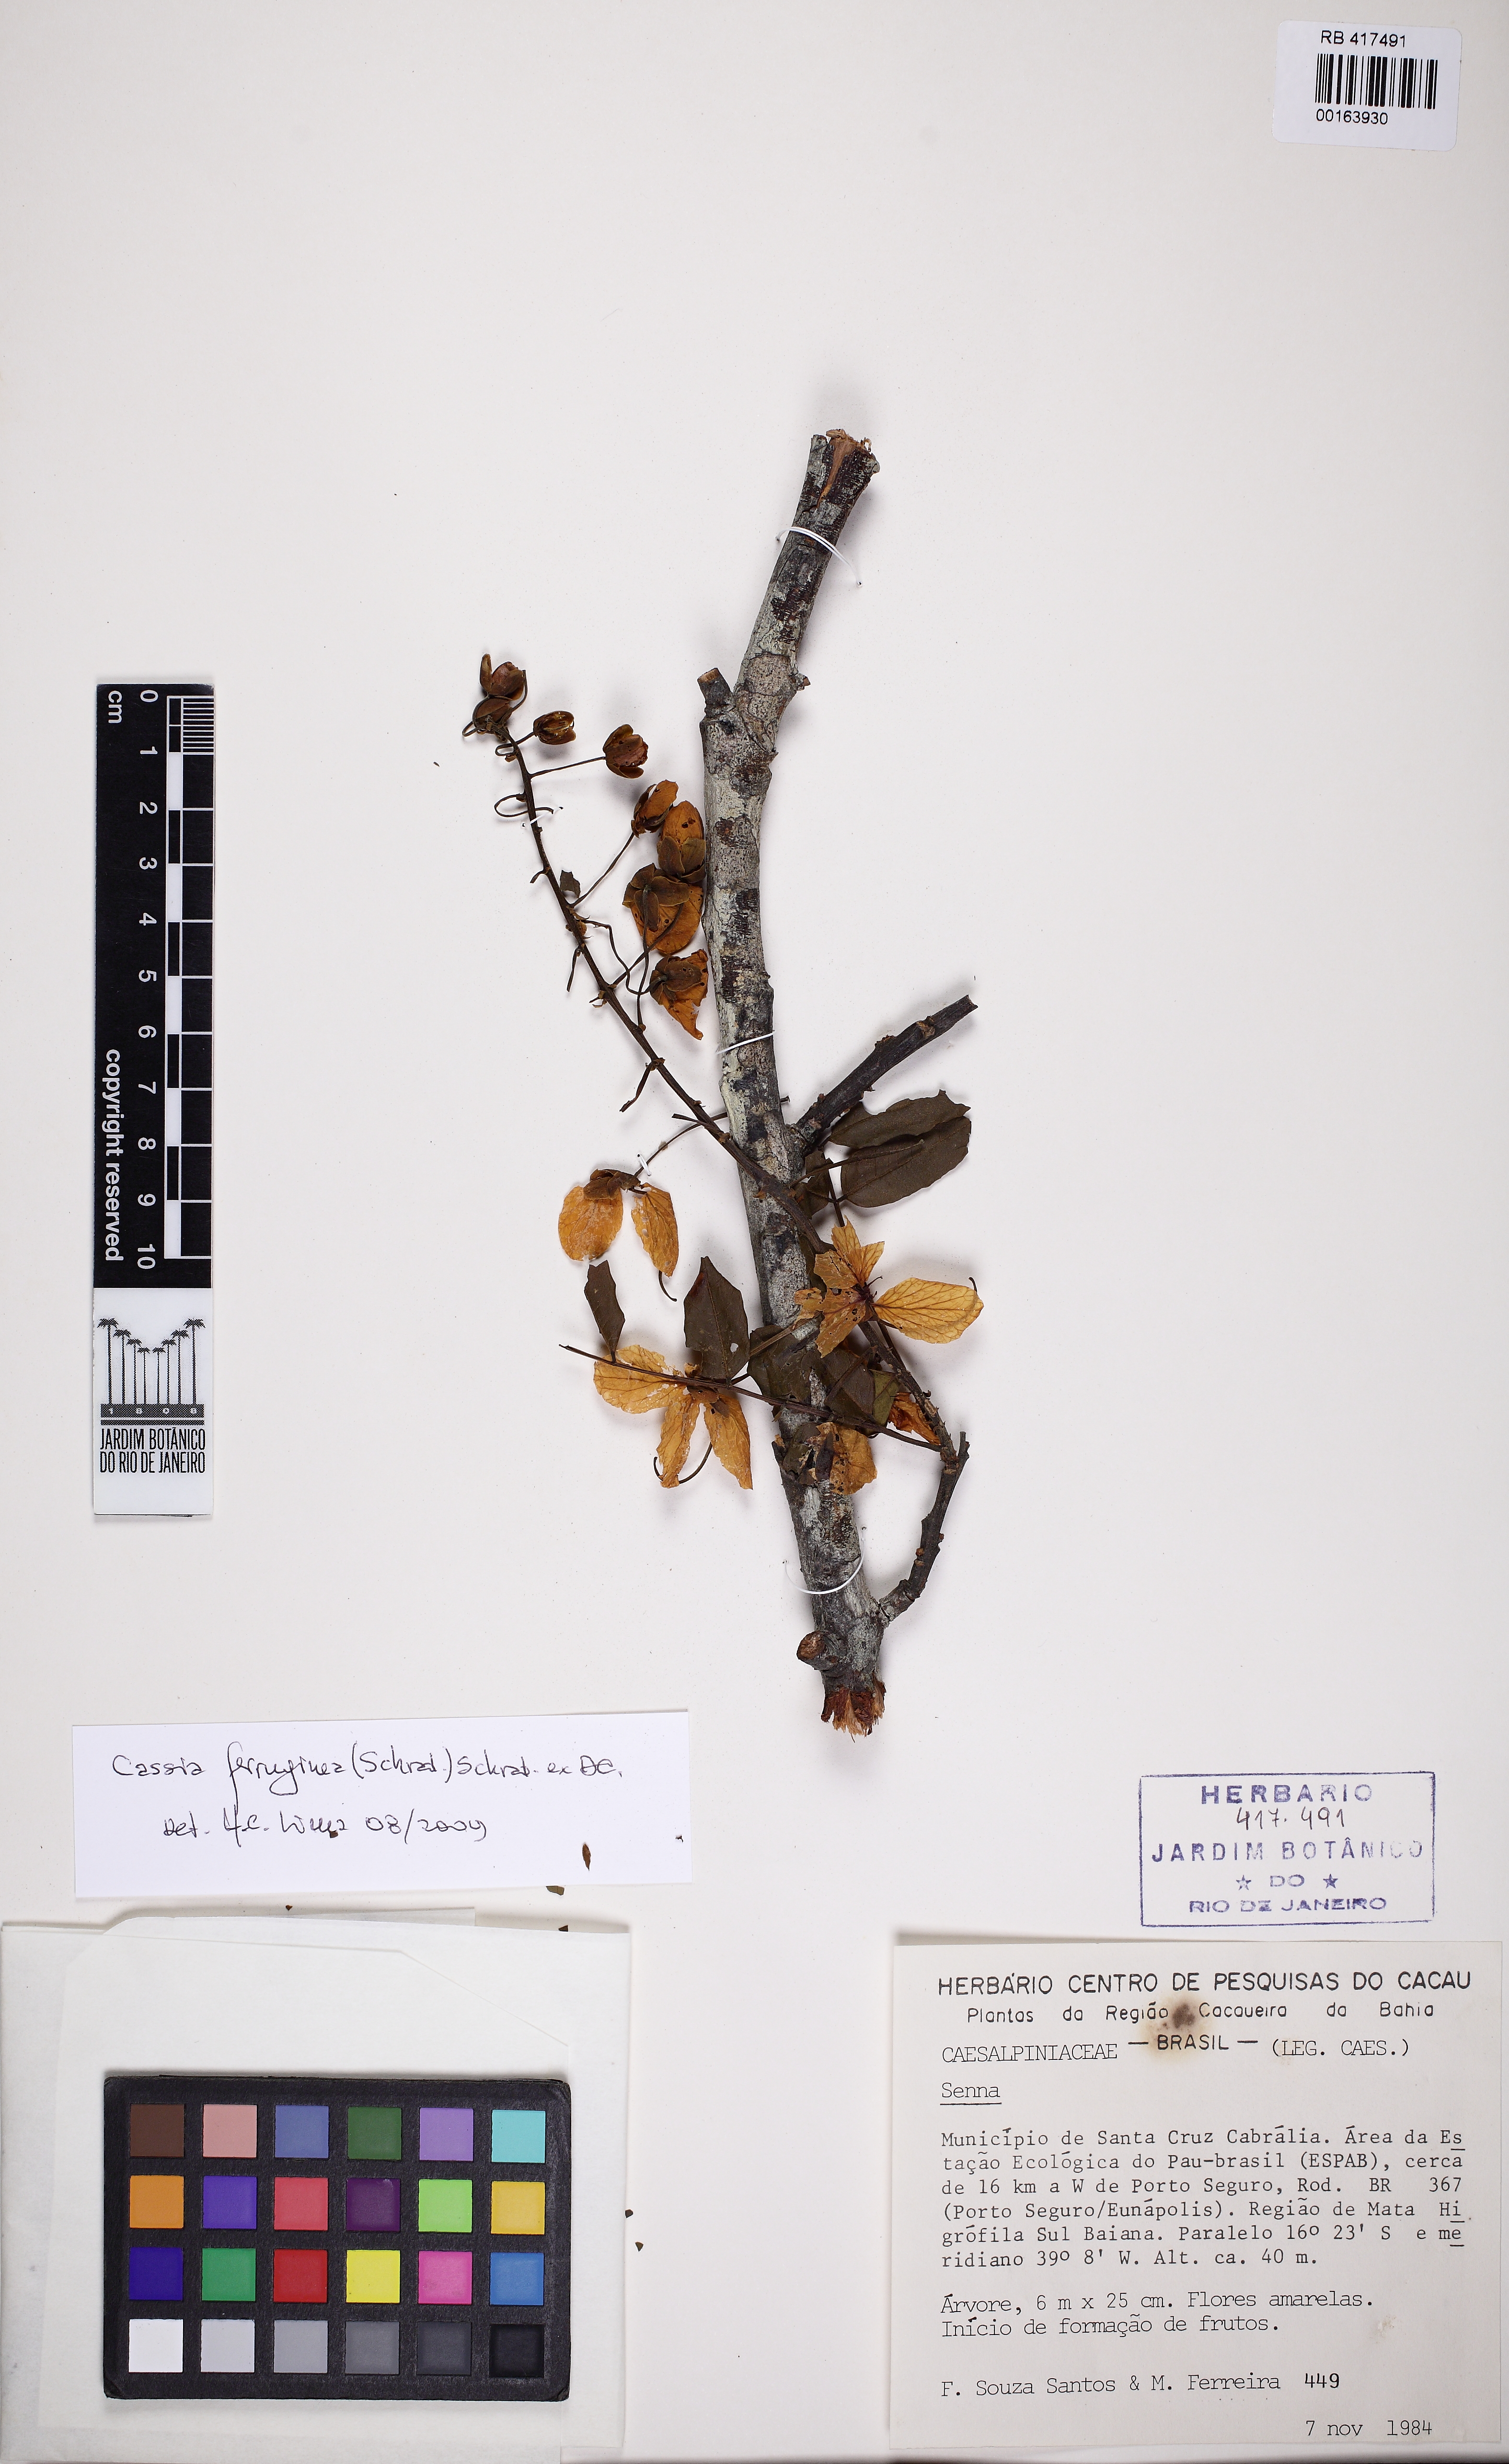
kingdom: Plantae
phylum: Tracheophyta
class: Magnoliopsida
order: Fabales
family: Fabaceae
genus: Senna
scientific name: Senna
